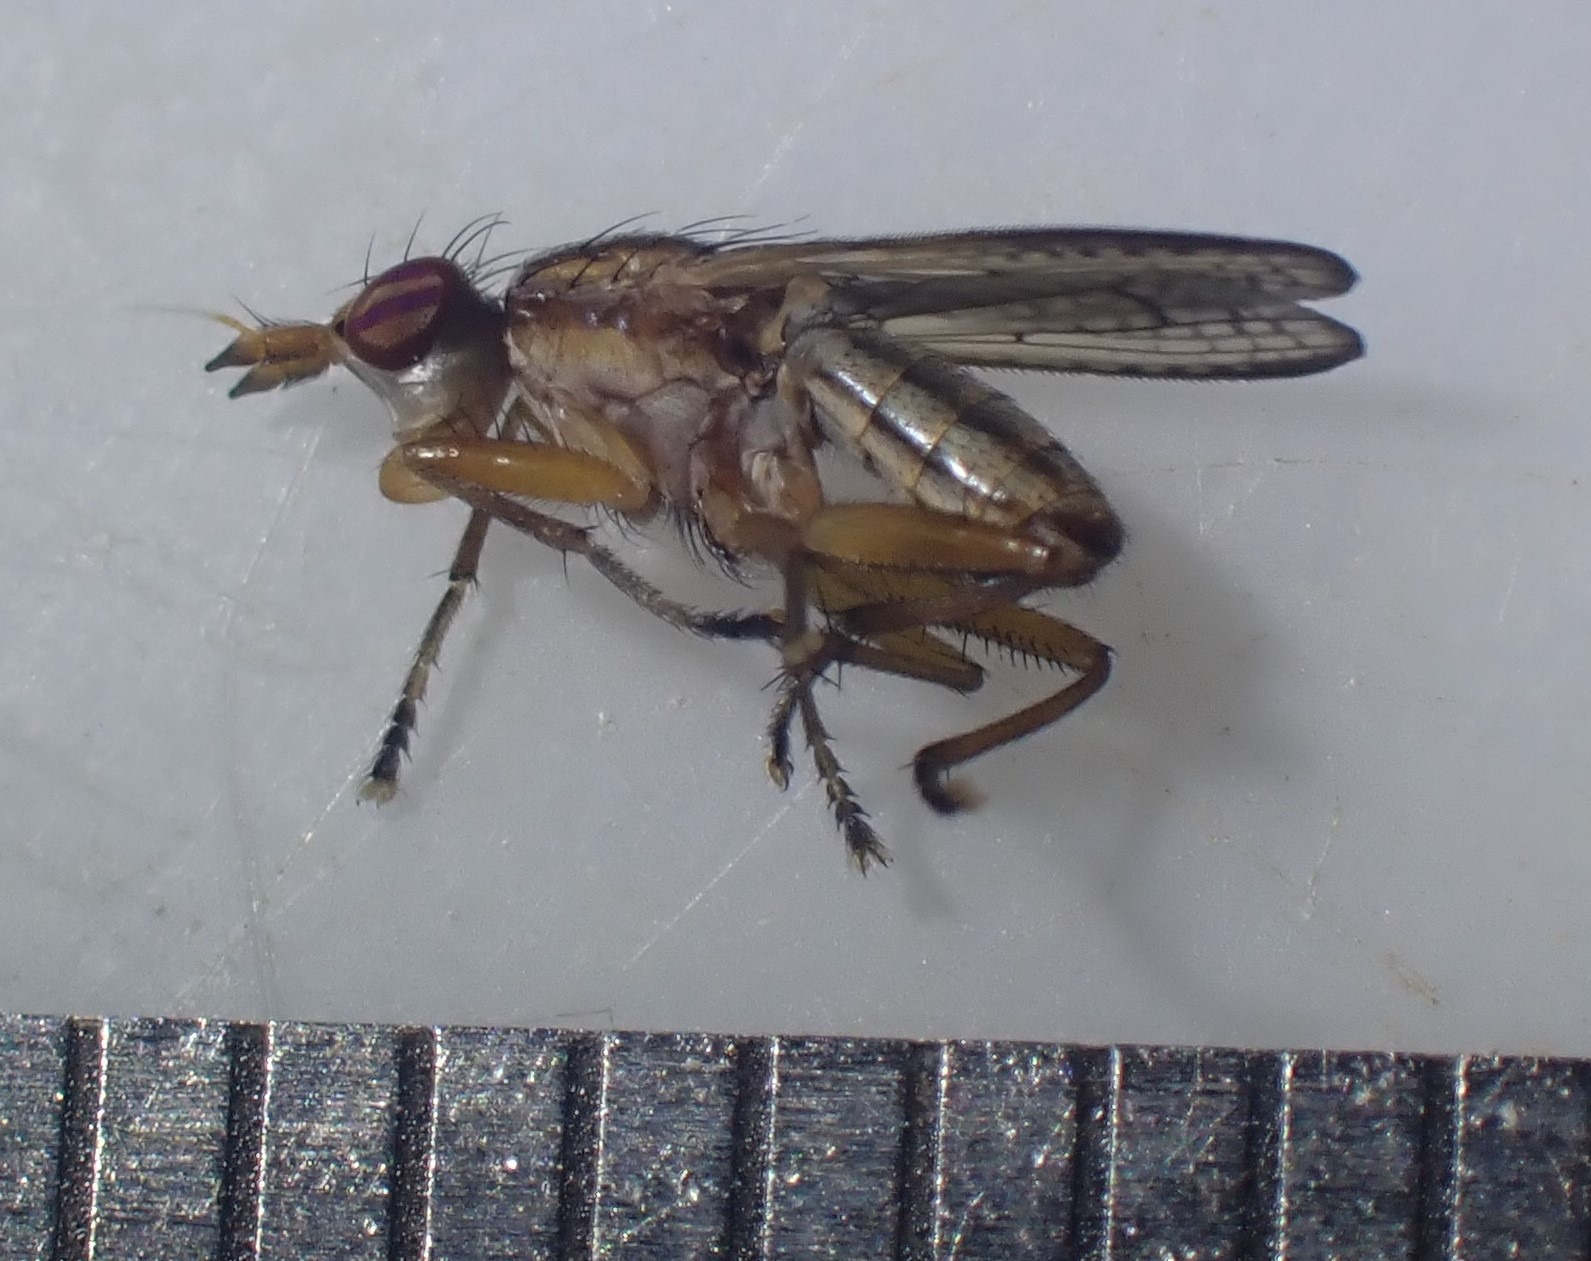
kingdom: Animalia
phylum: Arthropoda
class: Insecta
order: Diptera
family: Sciomyzidae
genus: Limnia
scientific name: Limnia unguicornis
